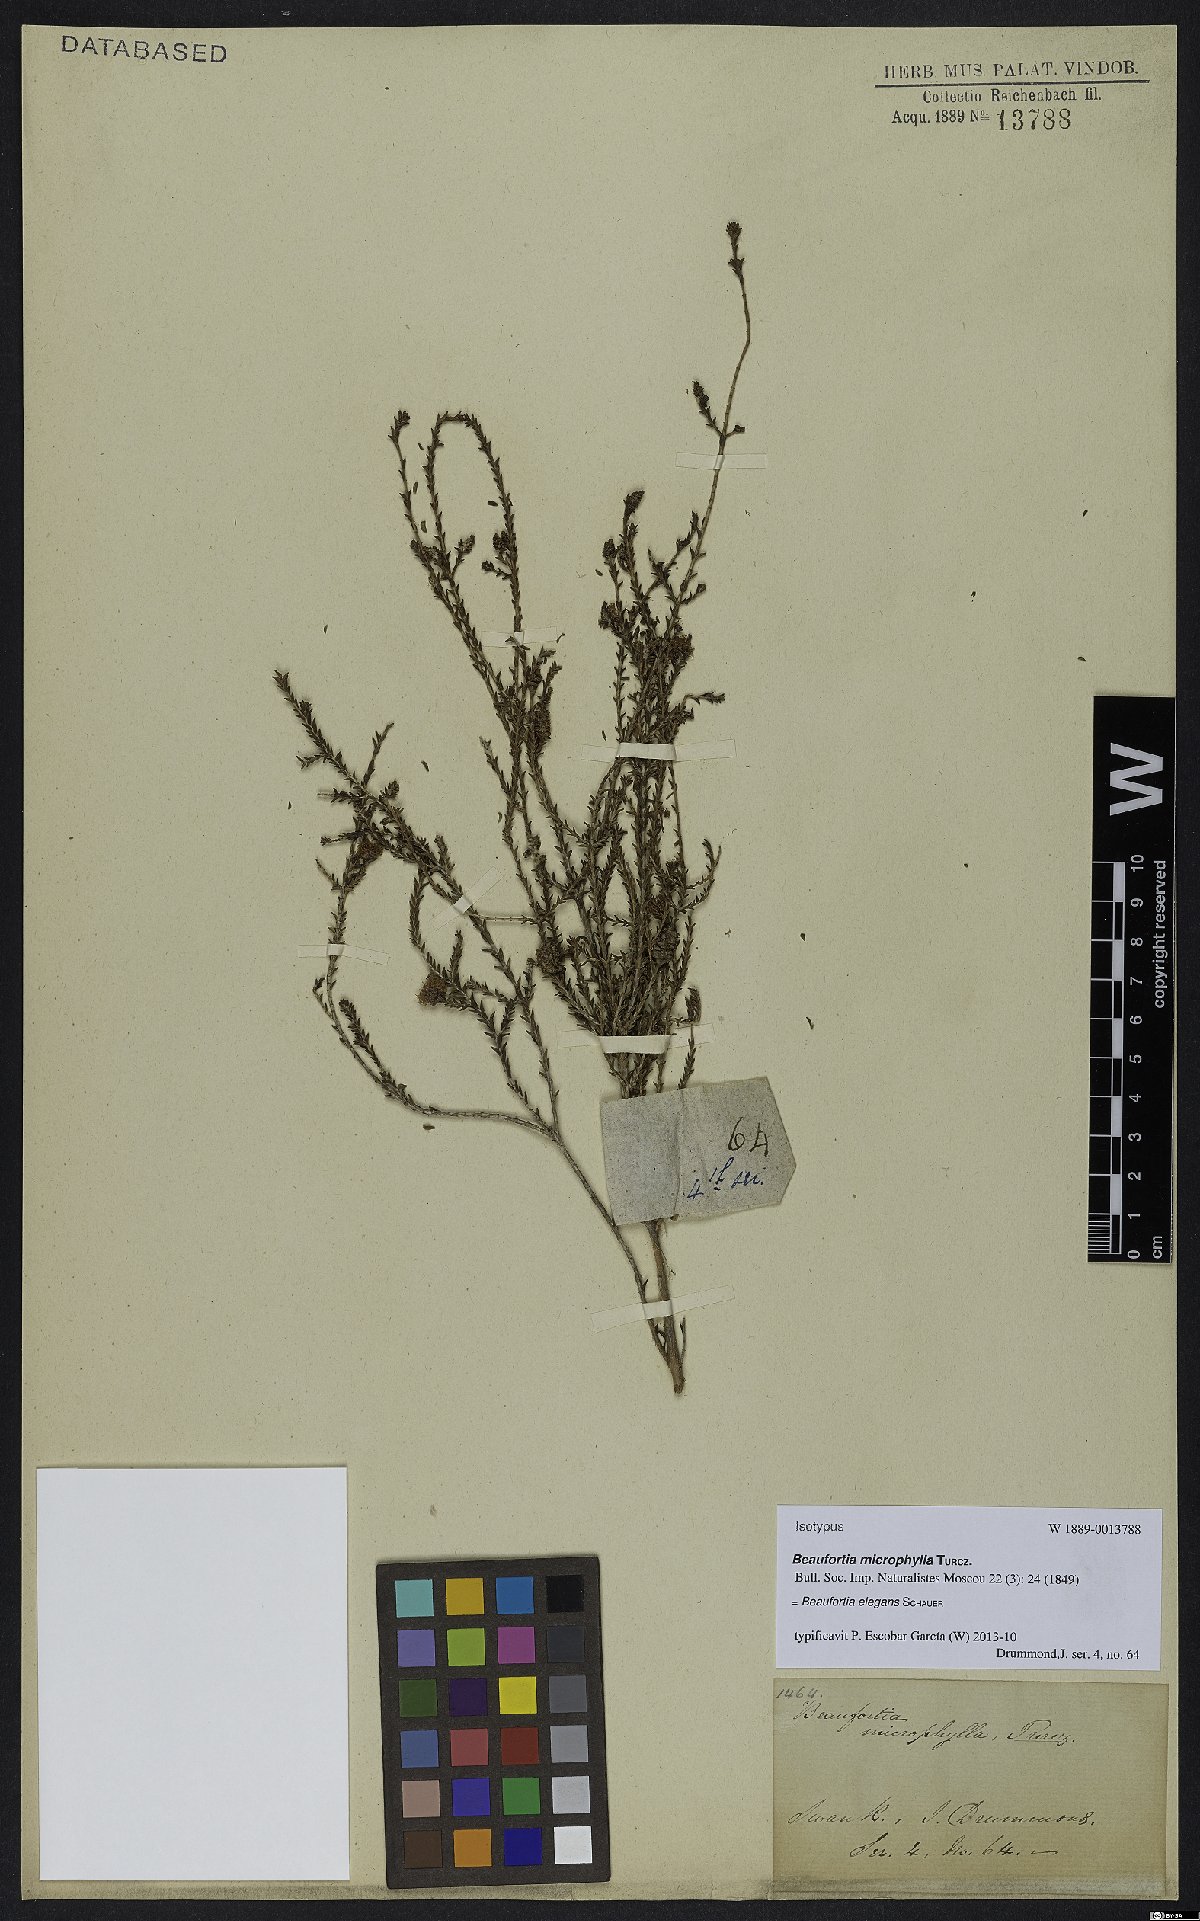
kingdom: Plantae
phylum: Tracheophyta
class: Magnoliopsida
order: Myrtales
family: Myrtaceae
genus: Melaleuca
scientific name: Melaleuca scitula
